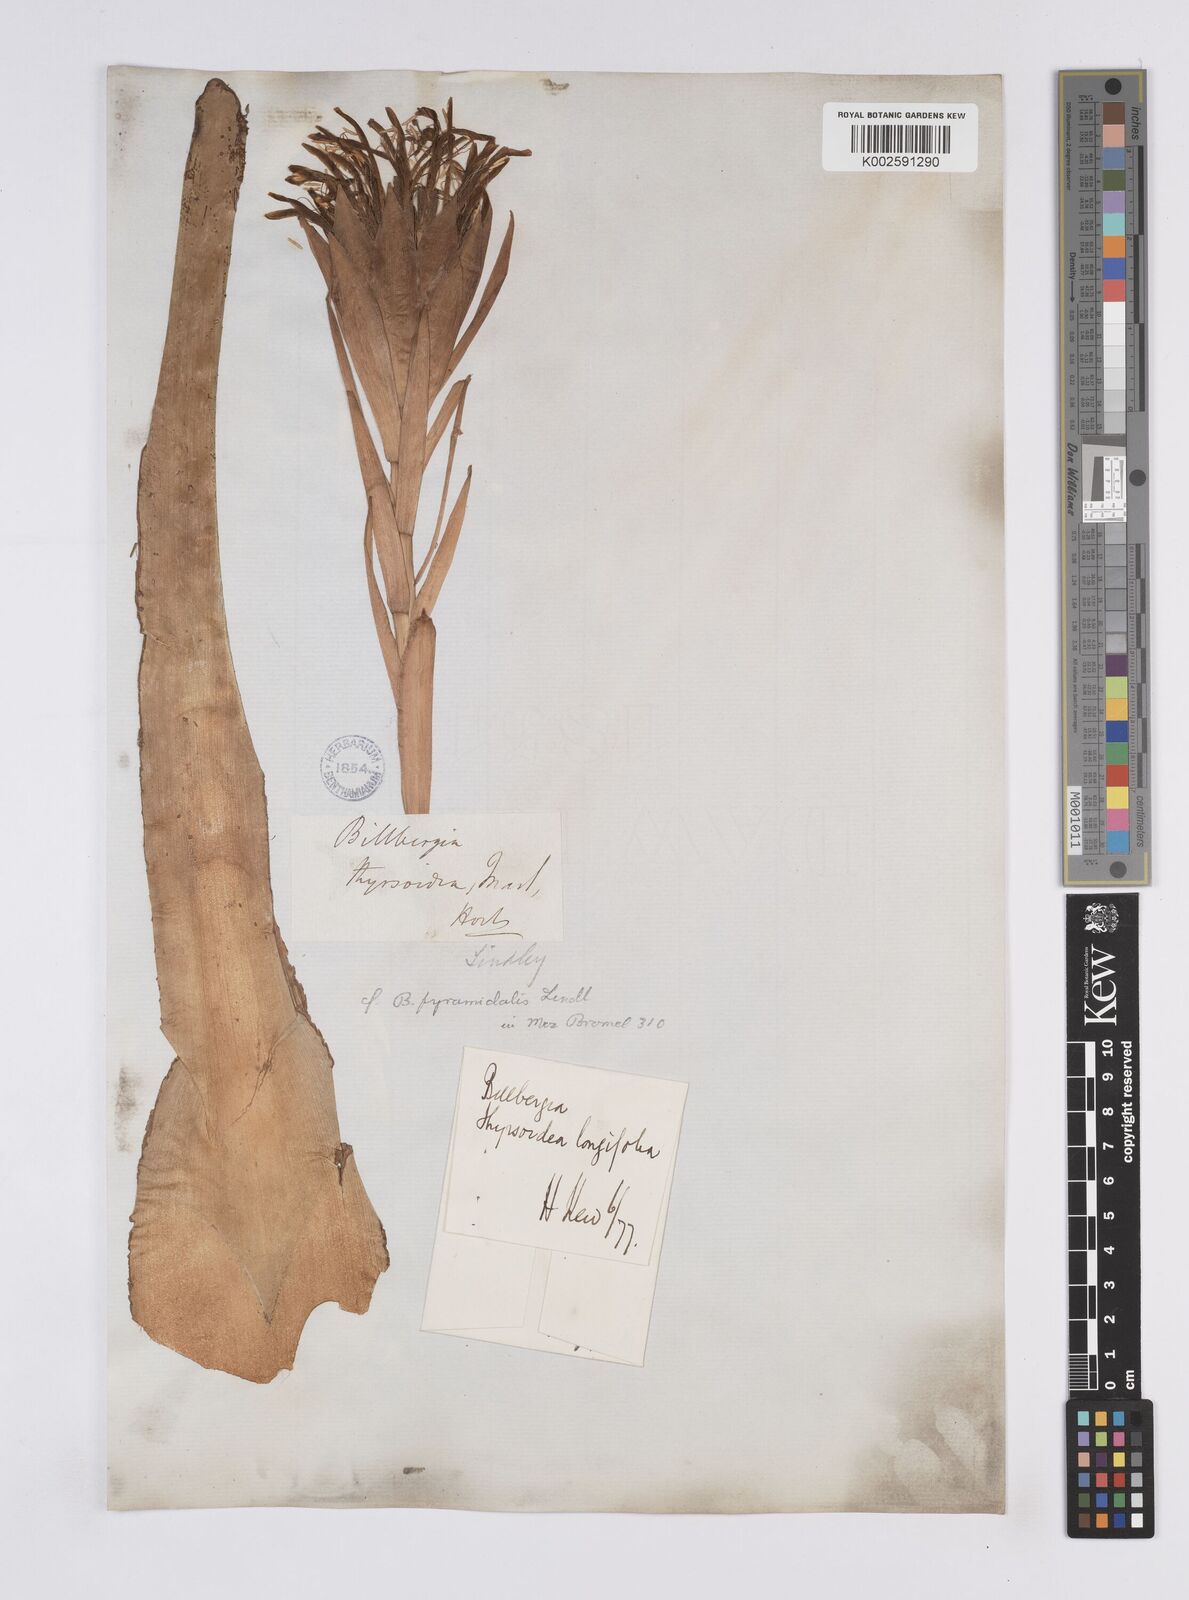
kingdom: Plantae
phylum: Tracheophyta
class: Liliopsida
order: Poales
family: Bromeliaceae
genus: Billbergia
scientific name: Billbergia pyramidalis
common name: Foolproofplant
